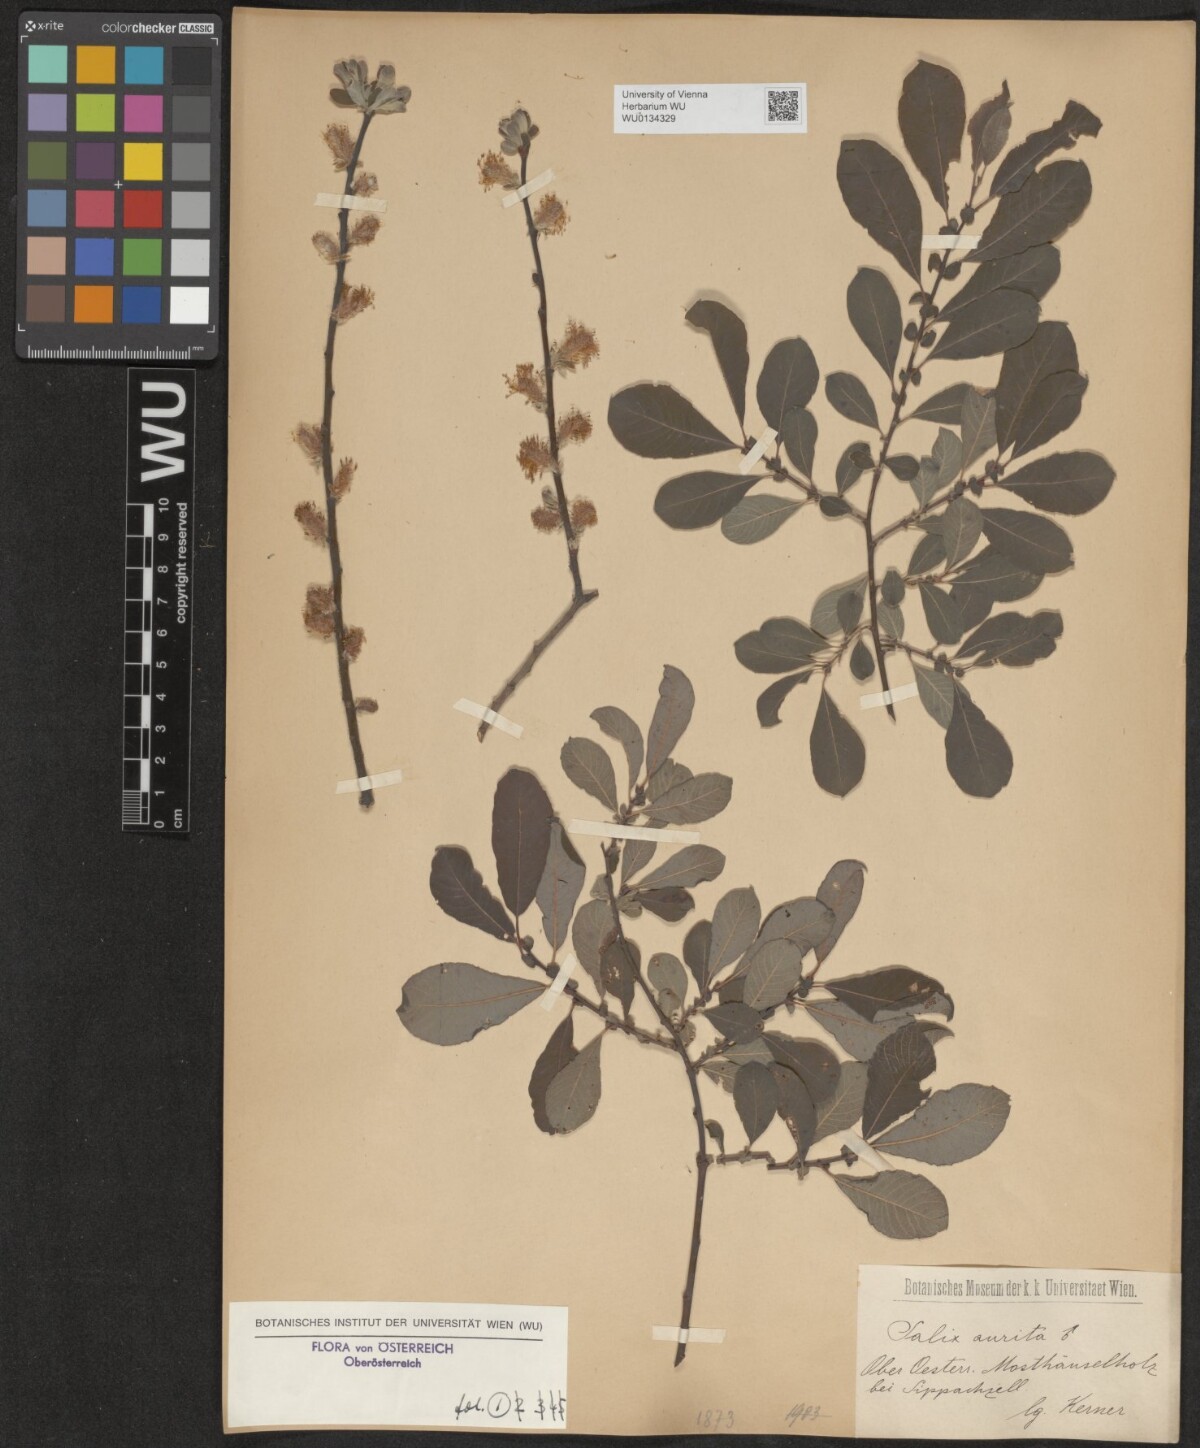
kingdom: Plantae
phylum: Tracheophyta
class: Magnoliopsida
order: Malpighiales
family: Salicaceae
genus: Salix
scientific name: Salix aurita
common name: Eared willow
